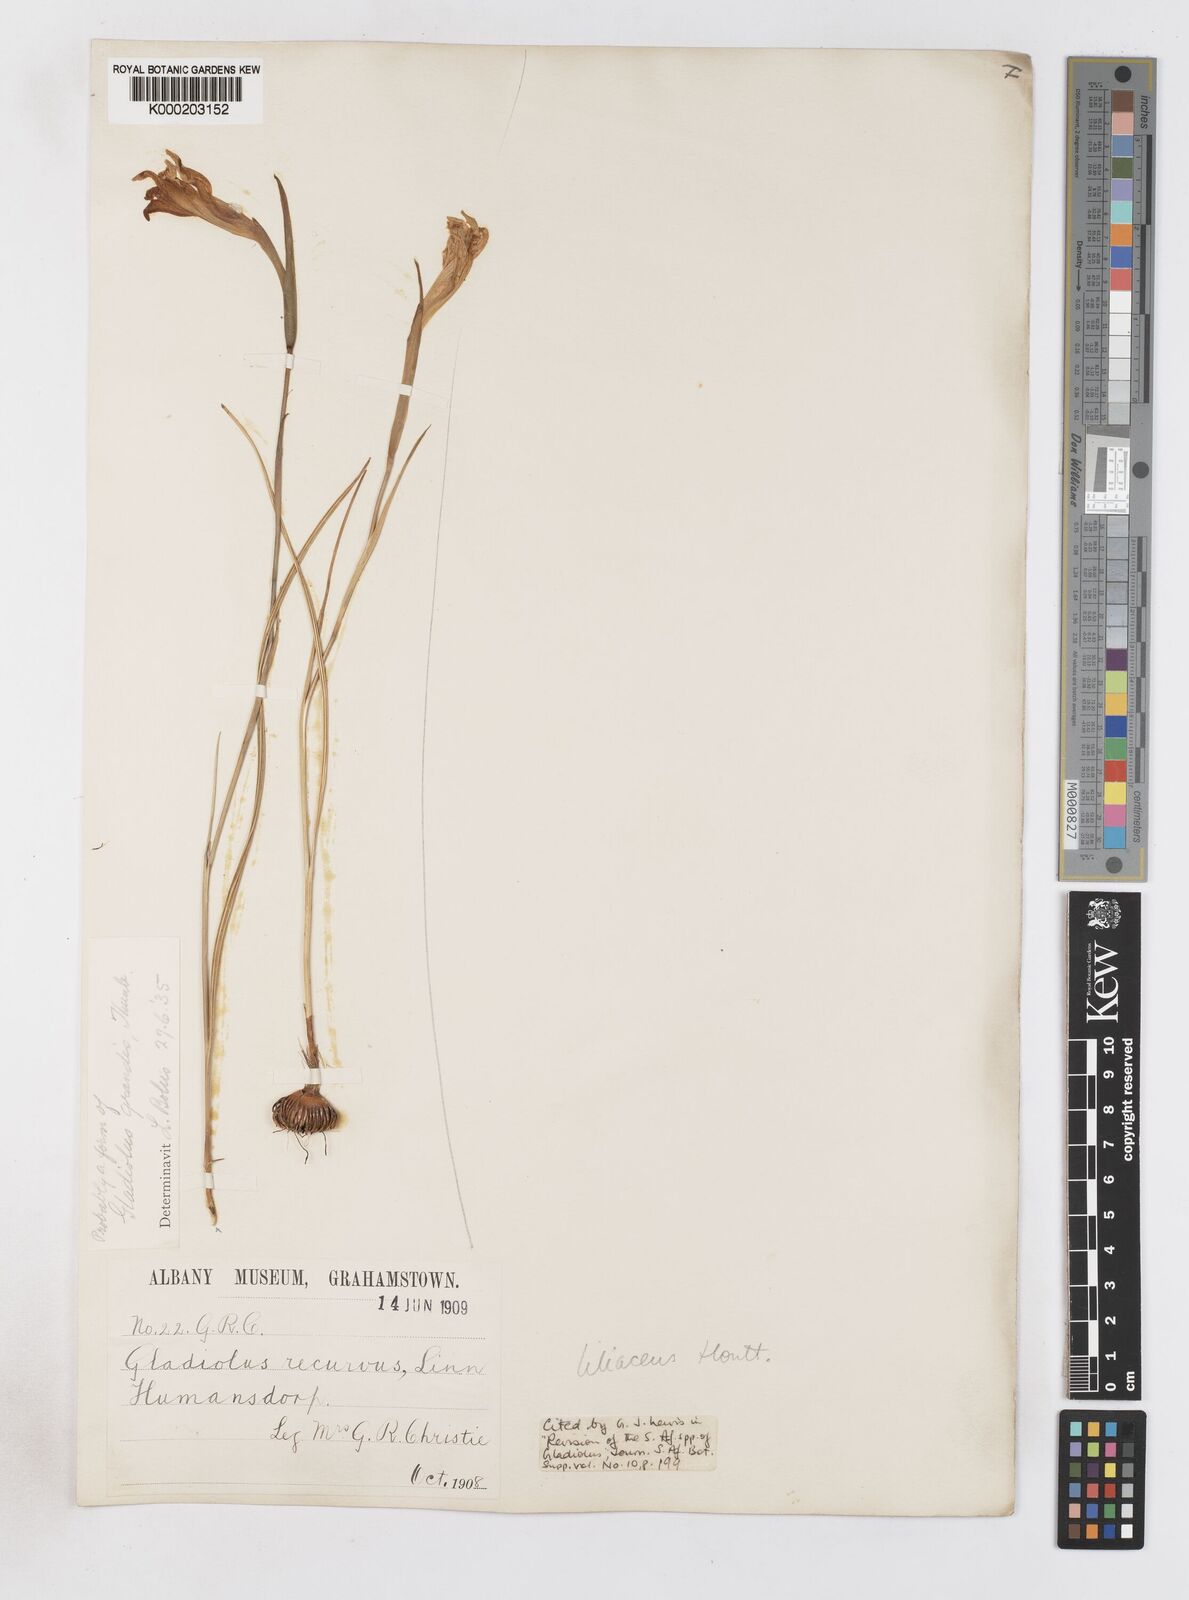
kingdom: Plantae
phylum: Tracheophyta
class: Liliopsida
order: Asparagales
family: Iridaceae
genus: Gladiolus
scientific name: Gladiolus liliaceus
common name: Large brown afrikaner
